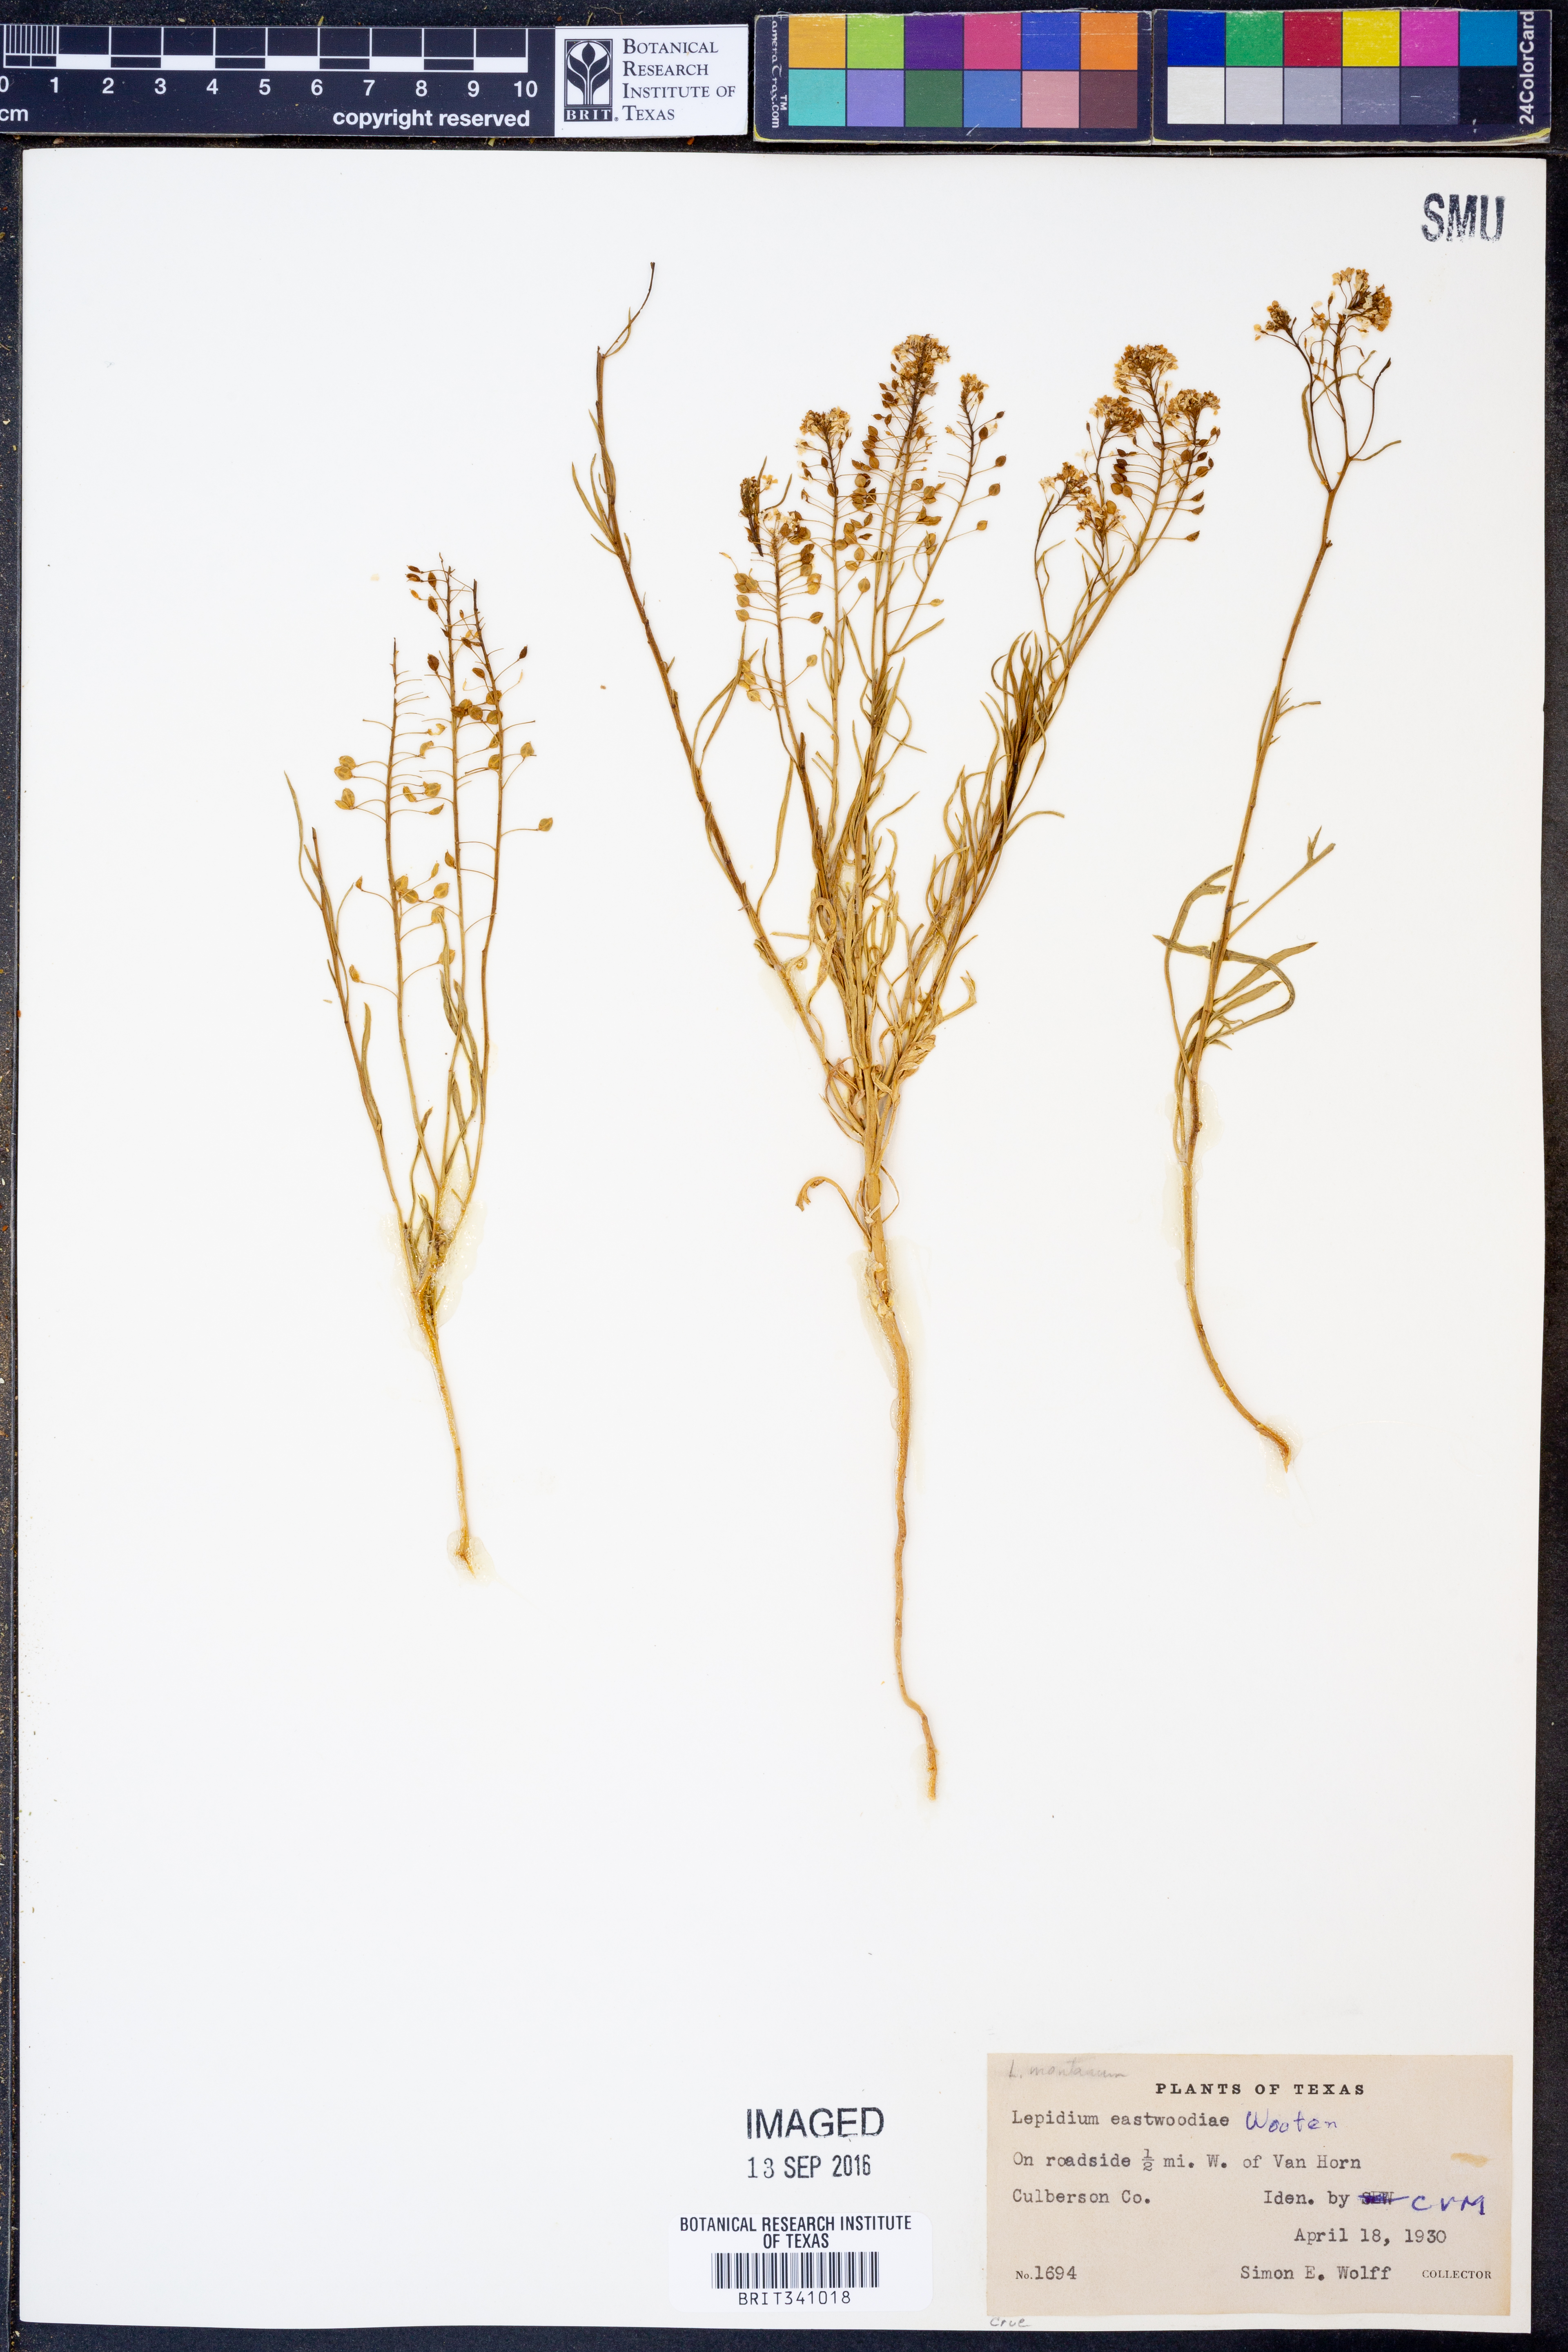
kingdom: Plantae
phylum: Tracheophyta
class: Magnoliopsida
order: Brassicales
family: Brassicaceae
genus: Lepidium
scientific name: Lepidium montanum
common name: Mountain pepperplant
